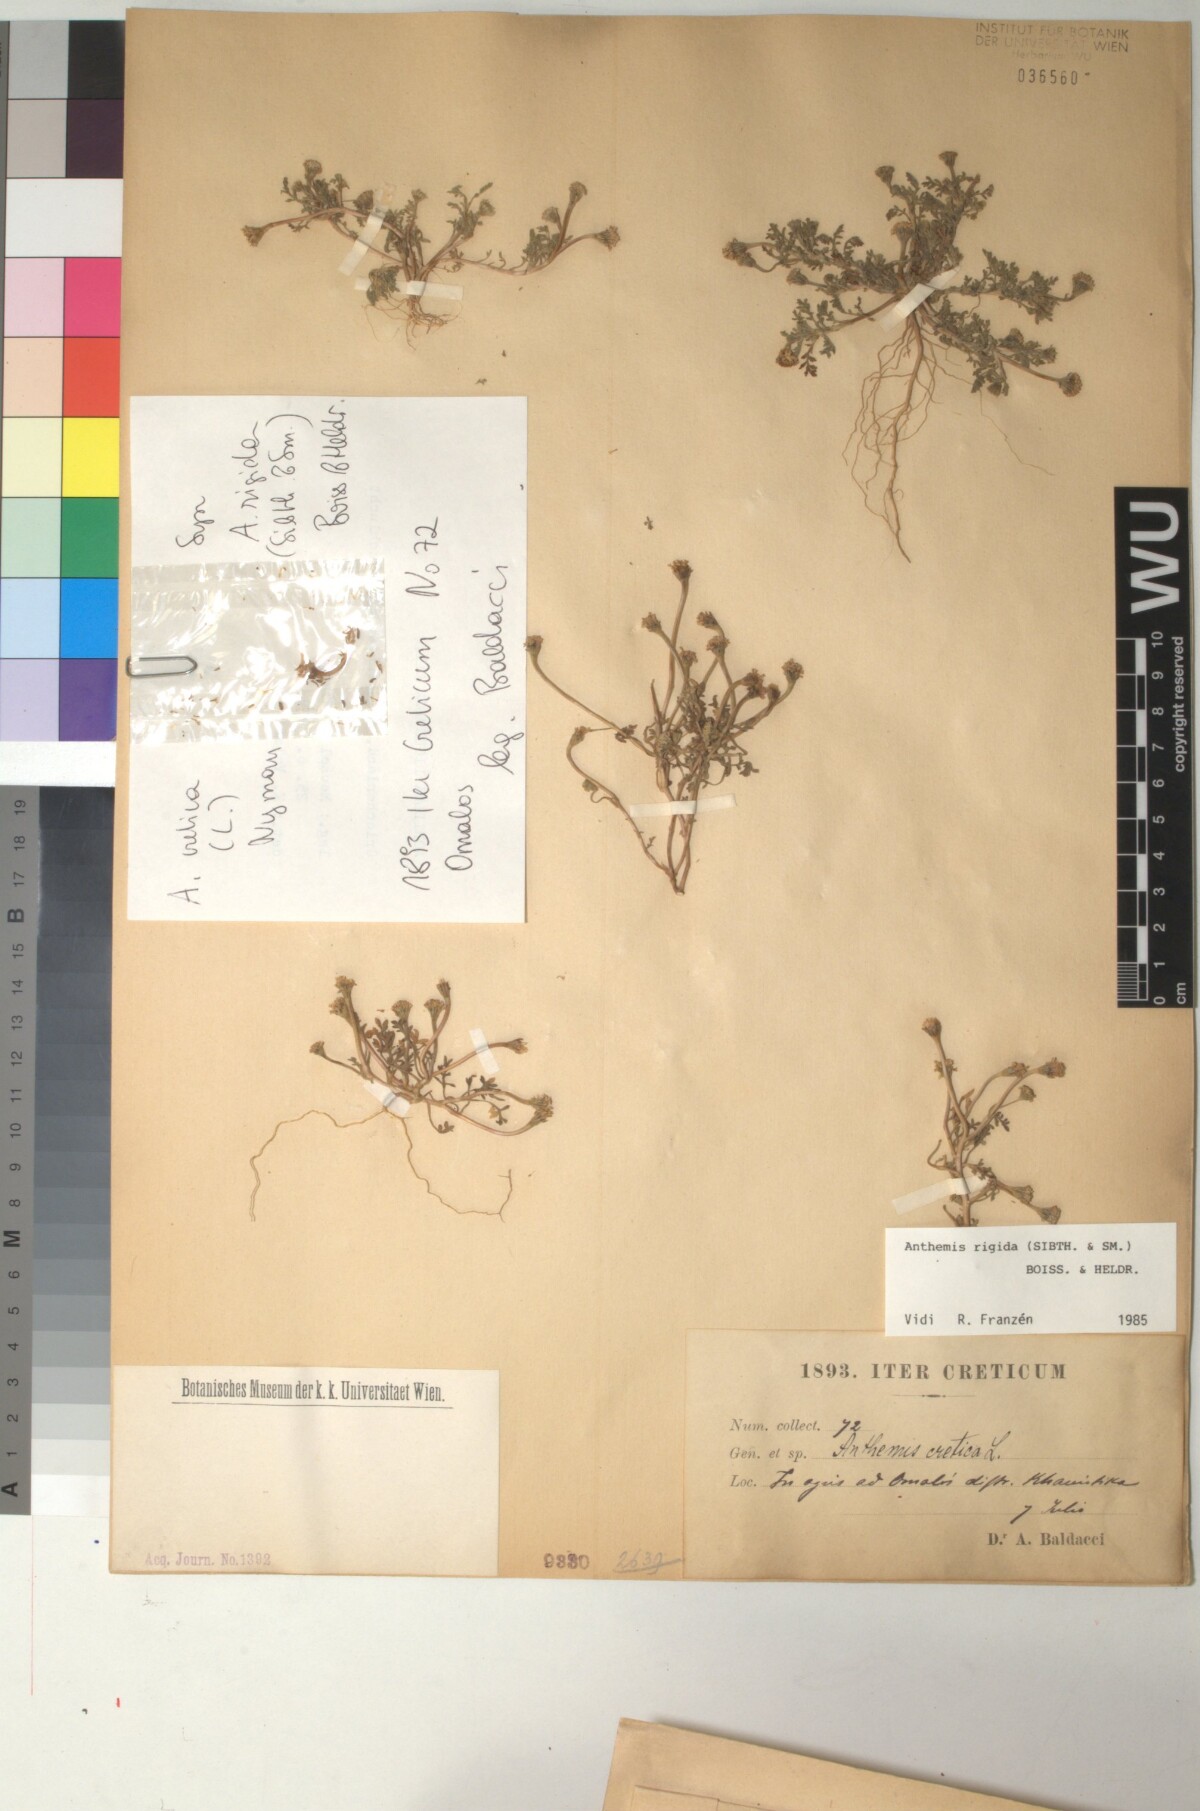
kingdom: Plantae
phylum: Tracheophyta
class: Magnoliopsida
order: Asterales
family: Asteraceae
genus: Anthemis
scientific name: Anthemis rigida
